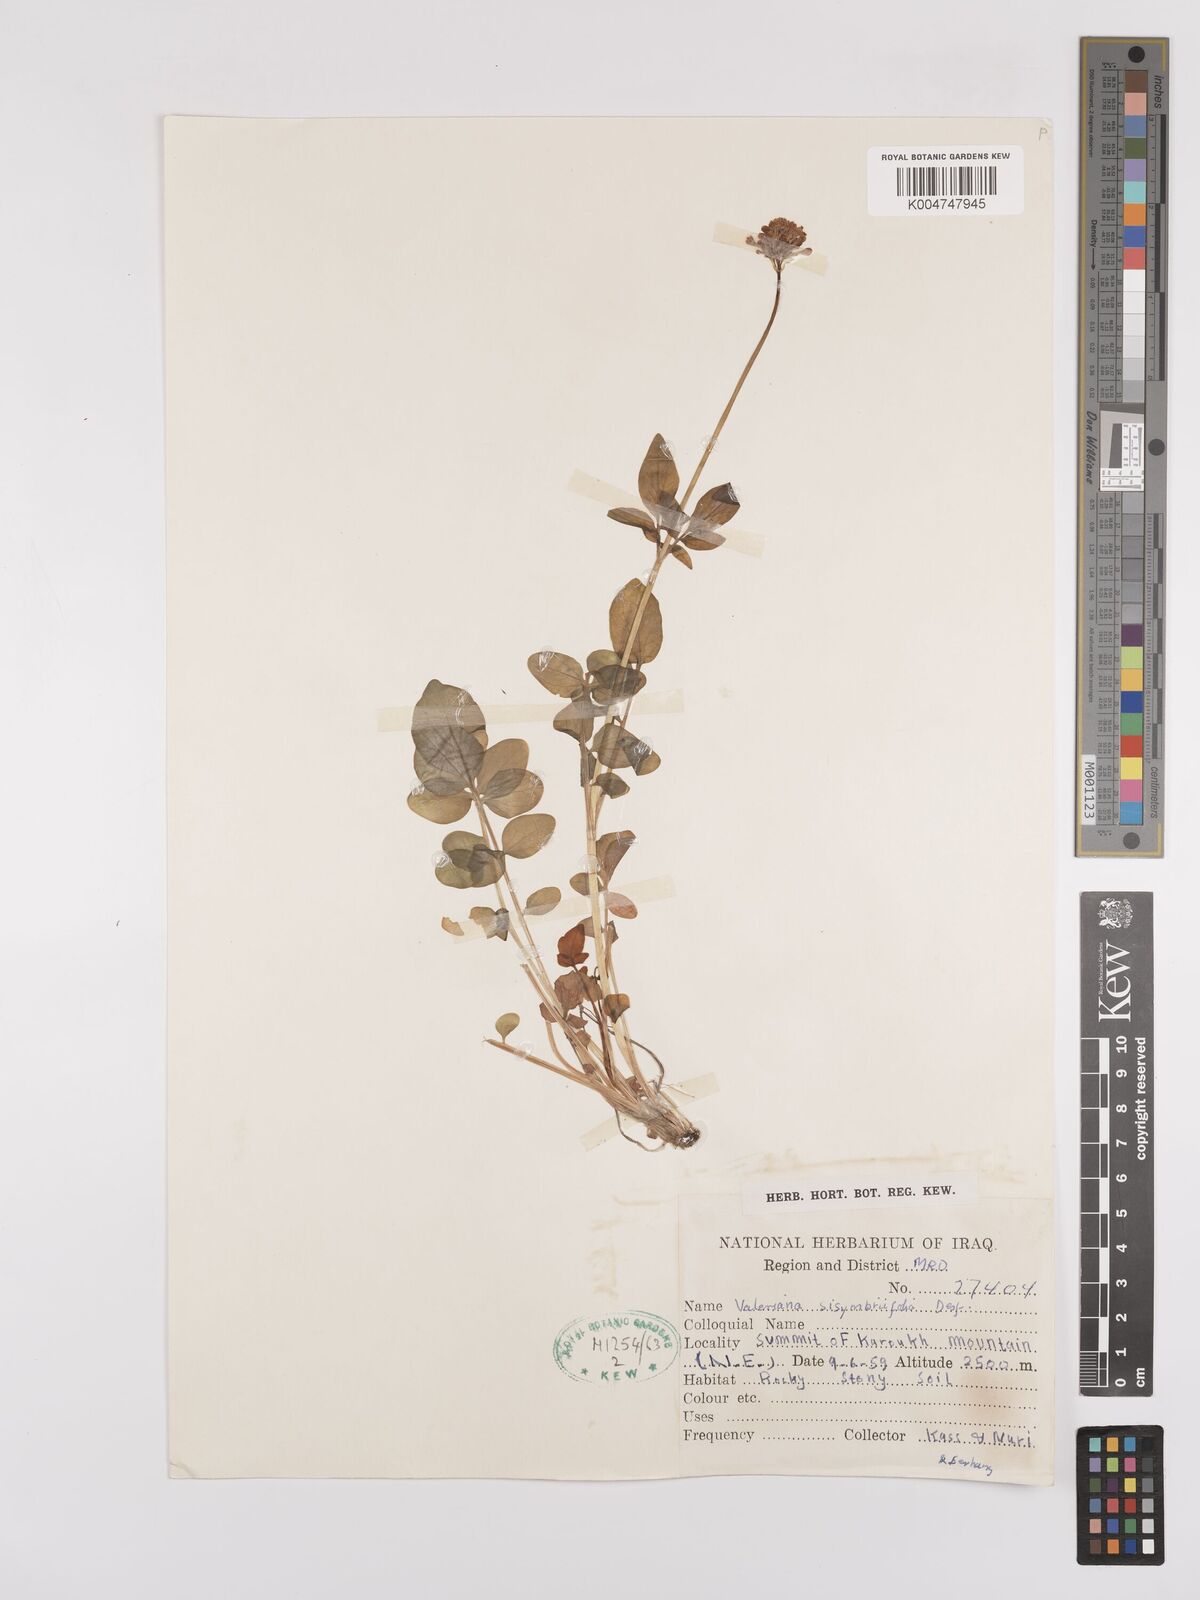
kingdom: Plantae
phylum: Tracheophyta
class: Magnoliopsida
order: Dipsacales
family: Caprifoliaceae
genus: Valeriana
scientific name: Valeriana
